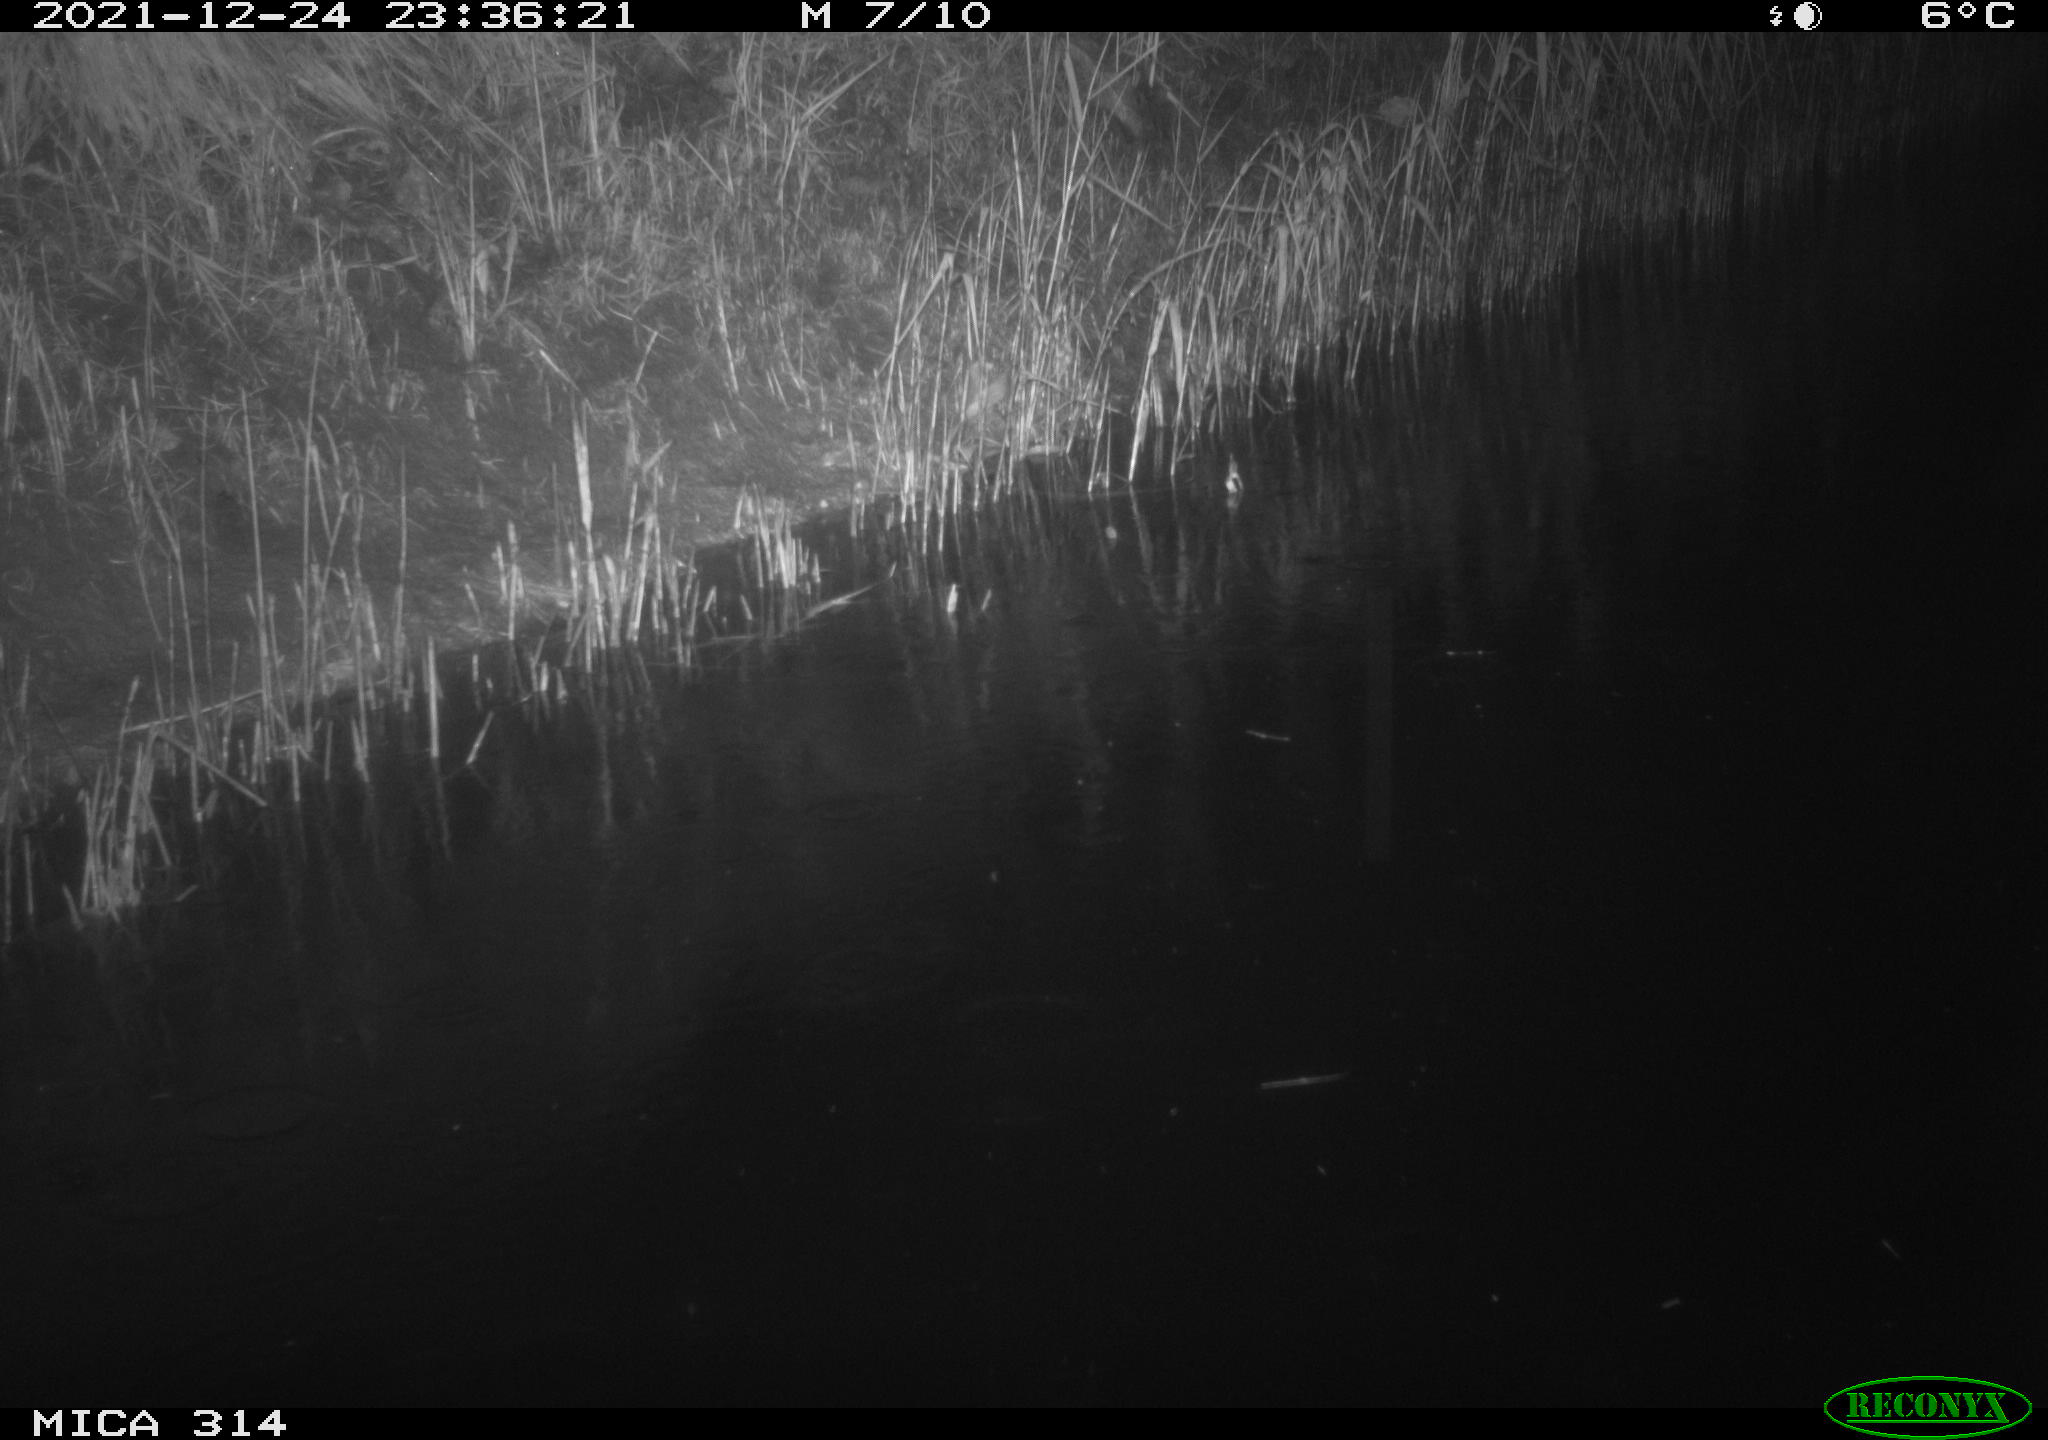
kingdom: Animalia
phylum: Chordata
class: Mammalia
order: Rodentia
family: Muridae
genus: Rattus
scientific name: Rattus norvegicus
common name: Brown rat
